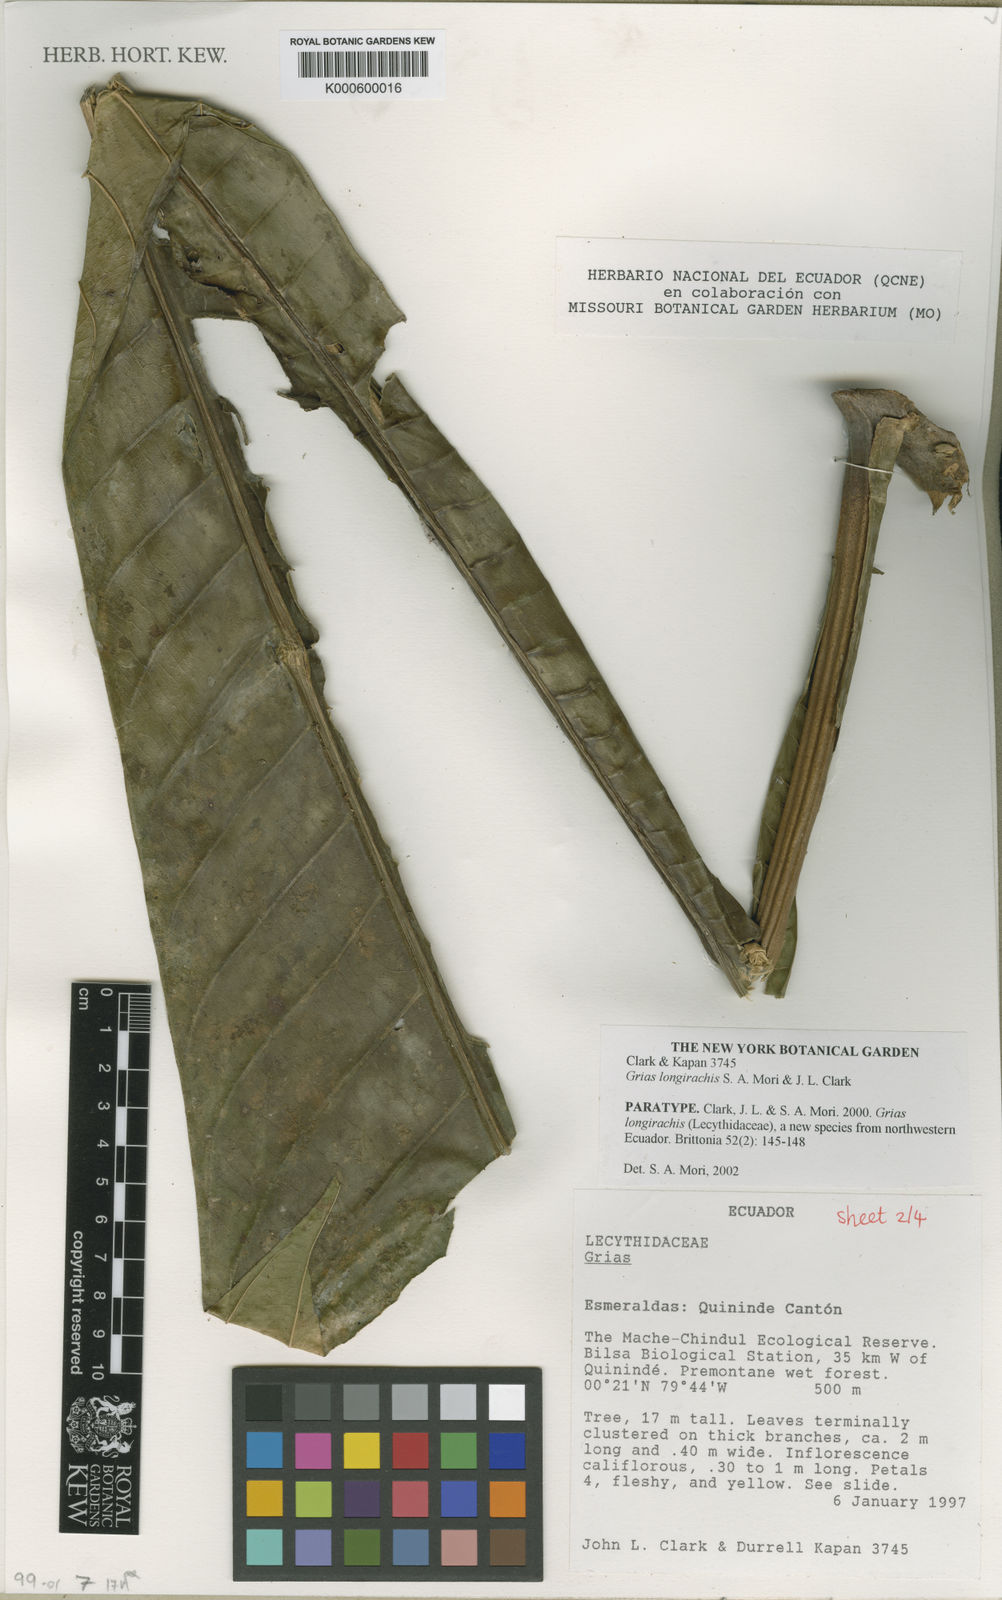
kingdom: Plantae
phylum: Tracheophyta
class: Magnoliopsida
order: Ericales
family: Lecythidaceae
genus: Grias
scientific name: Grias longirachis
